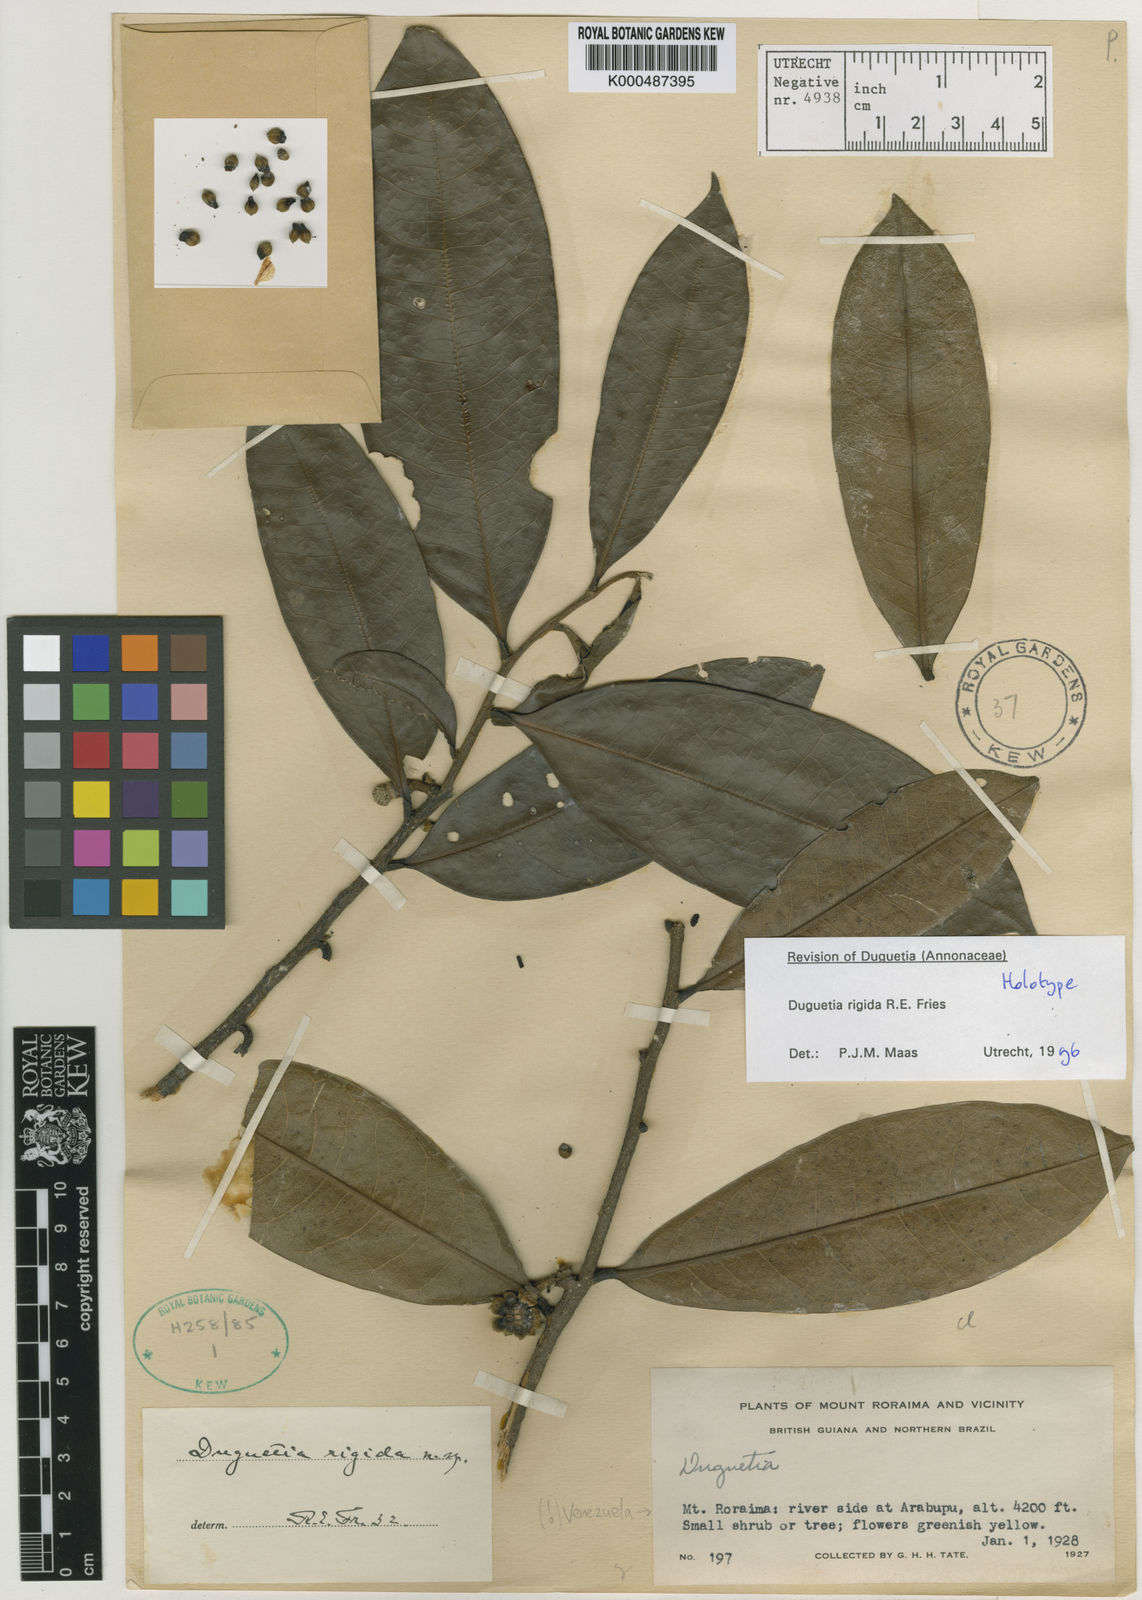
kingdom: Plantae
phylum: Tracheophyta
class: Magnoliopsida
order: Magnoliales
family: Annonaceae
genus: Duguetia
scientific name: Duguetia rigida
